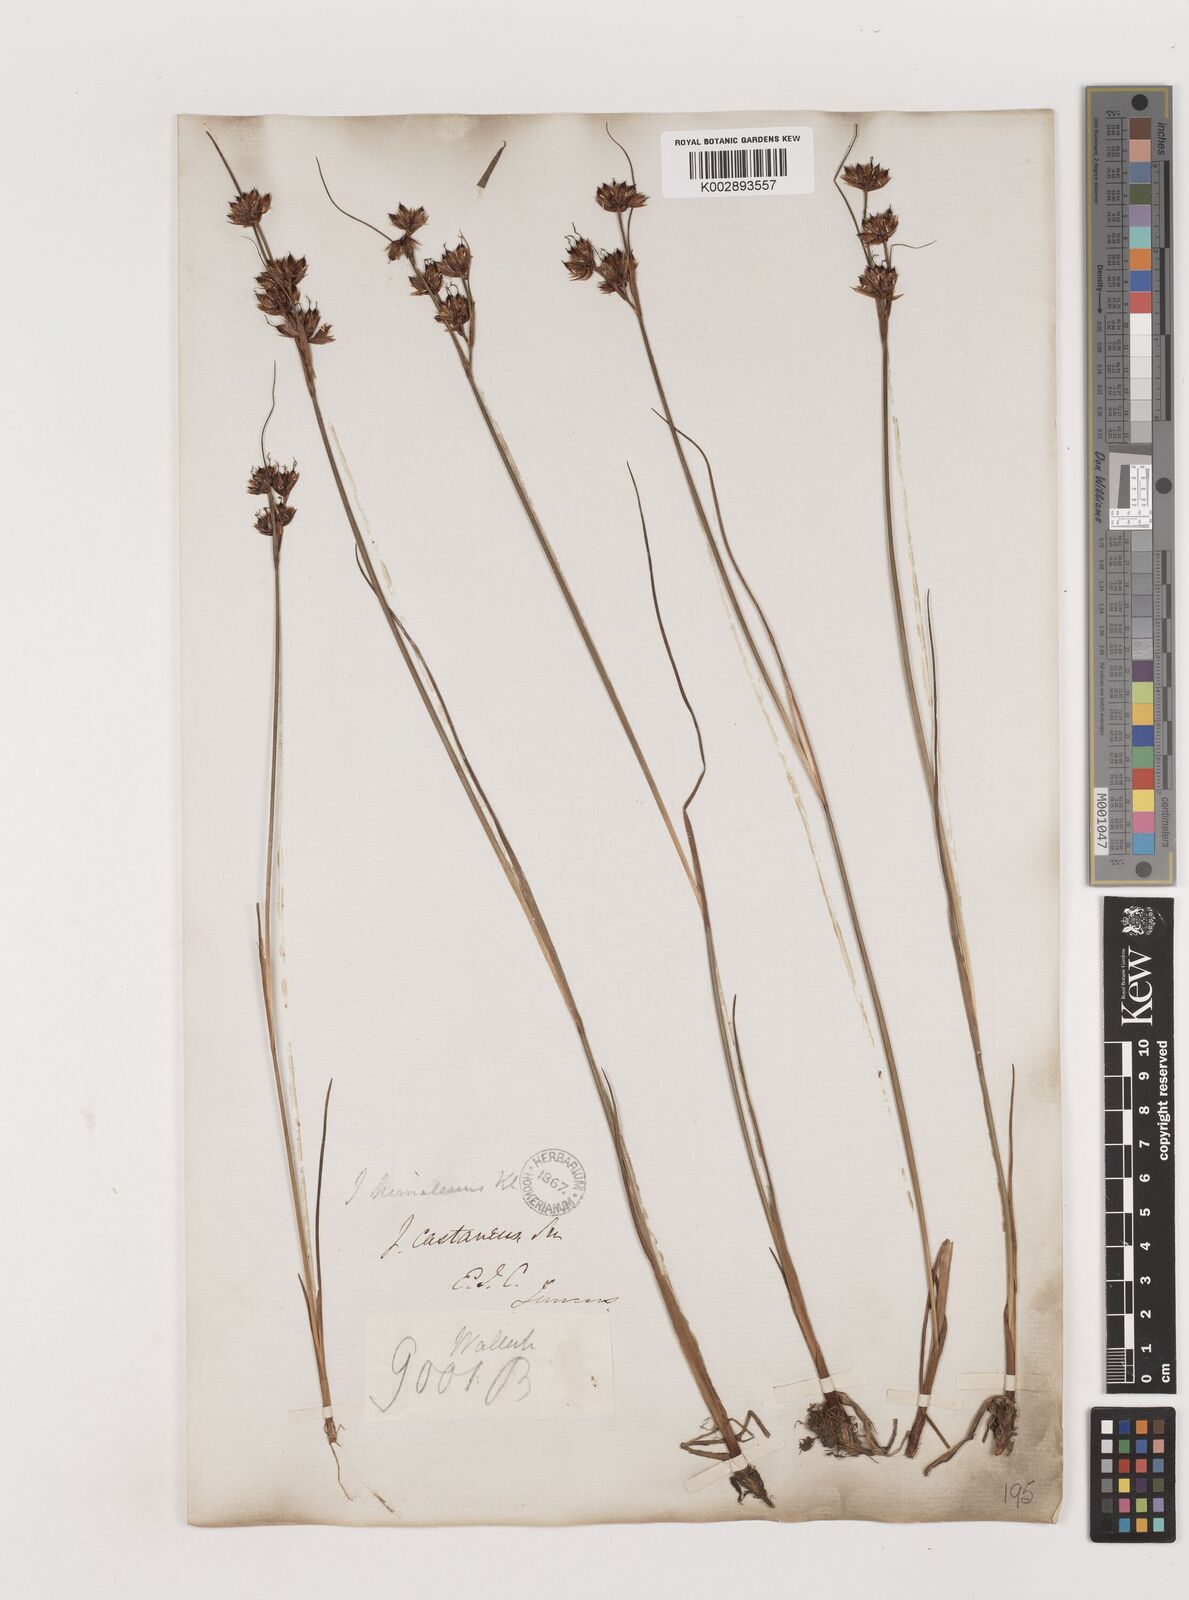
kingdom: Plantae
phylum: Tracheophyta
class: Liliopsida
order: Poales
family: Juncaceae
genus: Juncus
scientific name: Juncus himalensis
